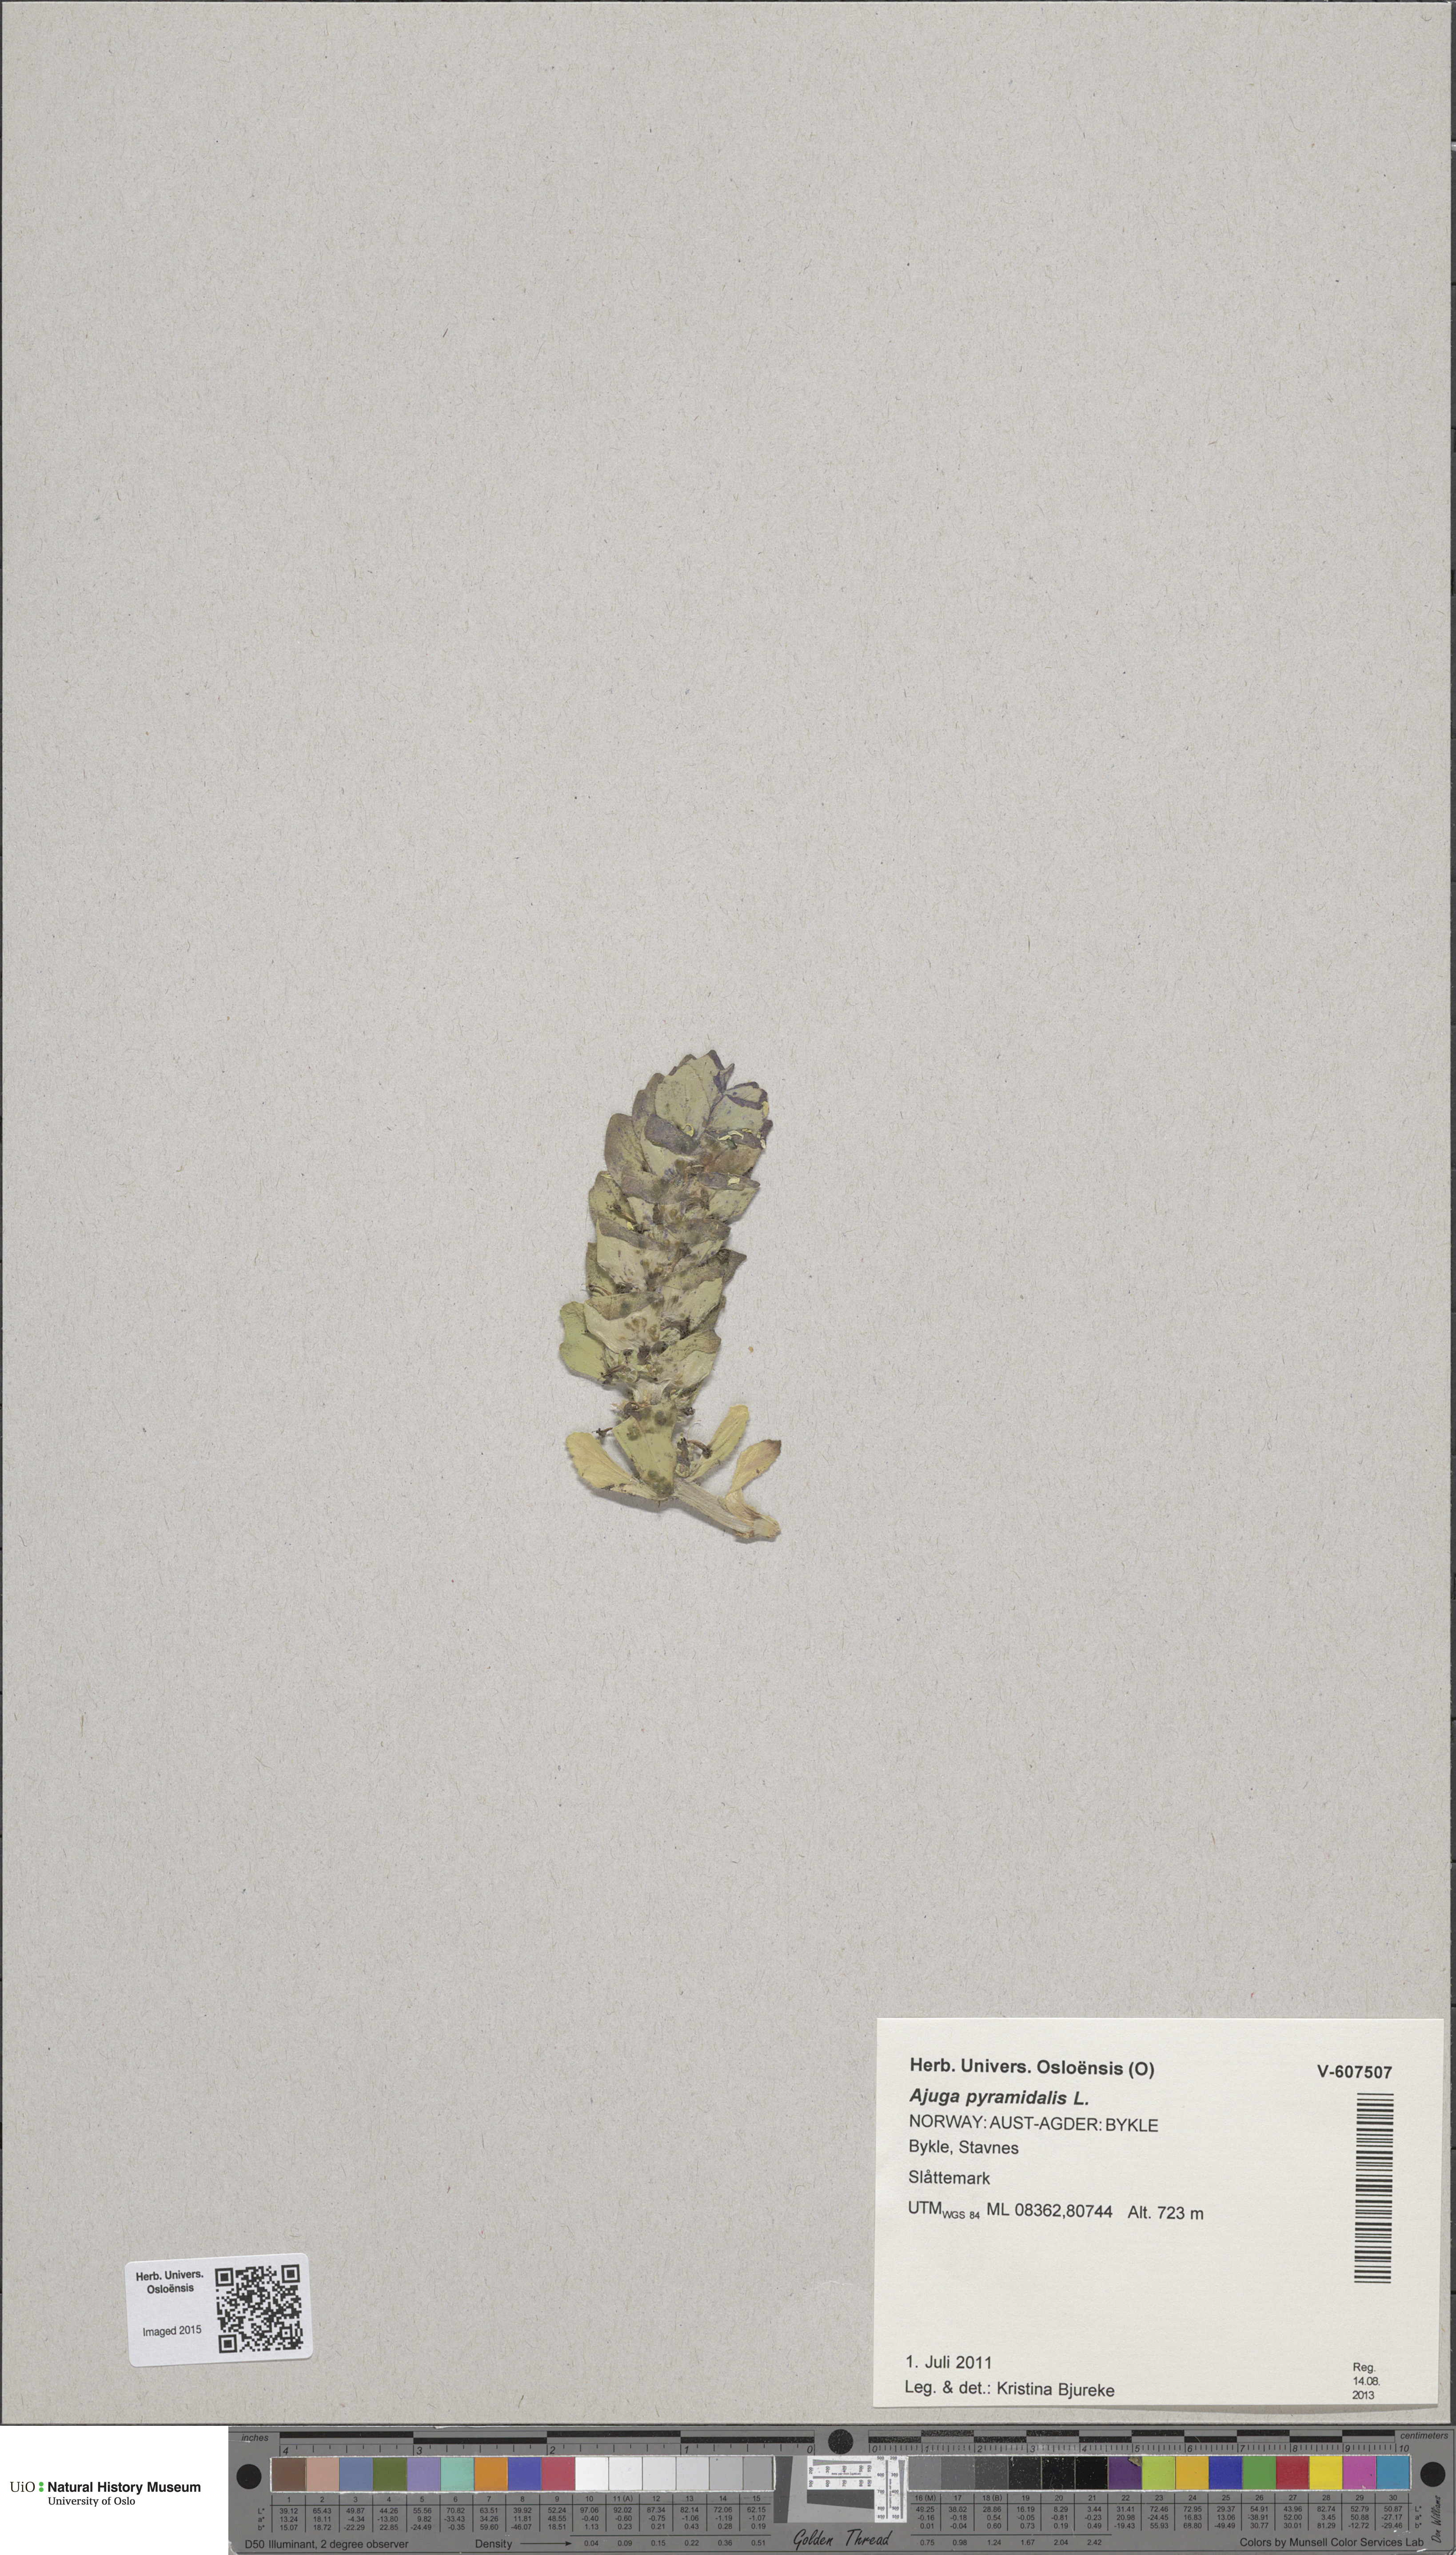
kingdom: Plantae
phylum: Tracheophyta
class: Magnoliopsida
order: Lamiales
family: Lamiaceae
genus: Ajuga
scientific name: Ajuga pyramidalis
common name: Pyramid bugle
